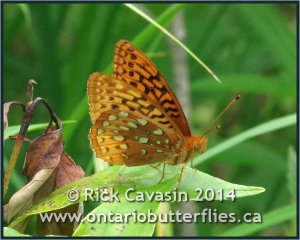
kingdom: Animalia
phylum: Arthropoda
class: Insecta
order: Lepidoptera
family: Nymphalidae
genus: Speyeria
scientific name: Speyeria cybele
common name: Great Spangled Fritillary
